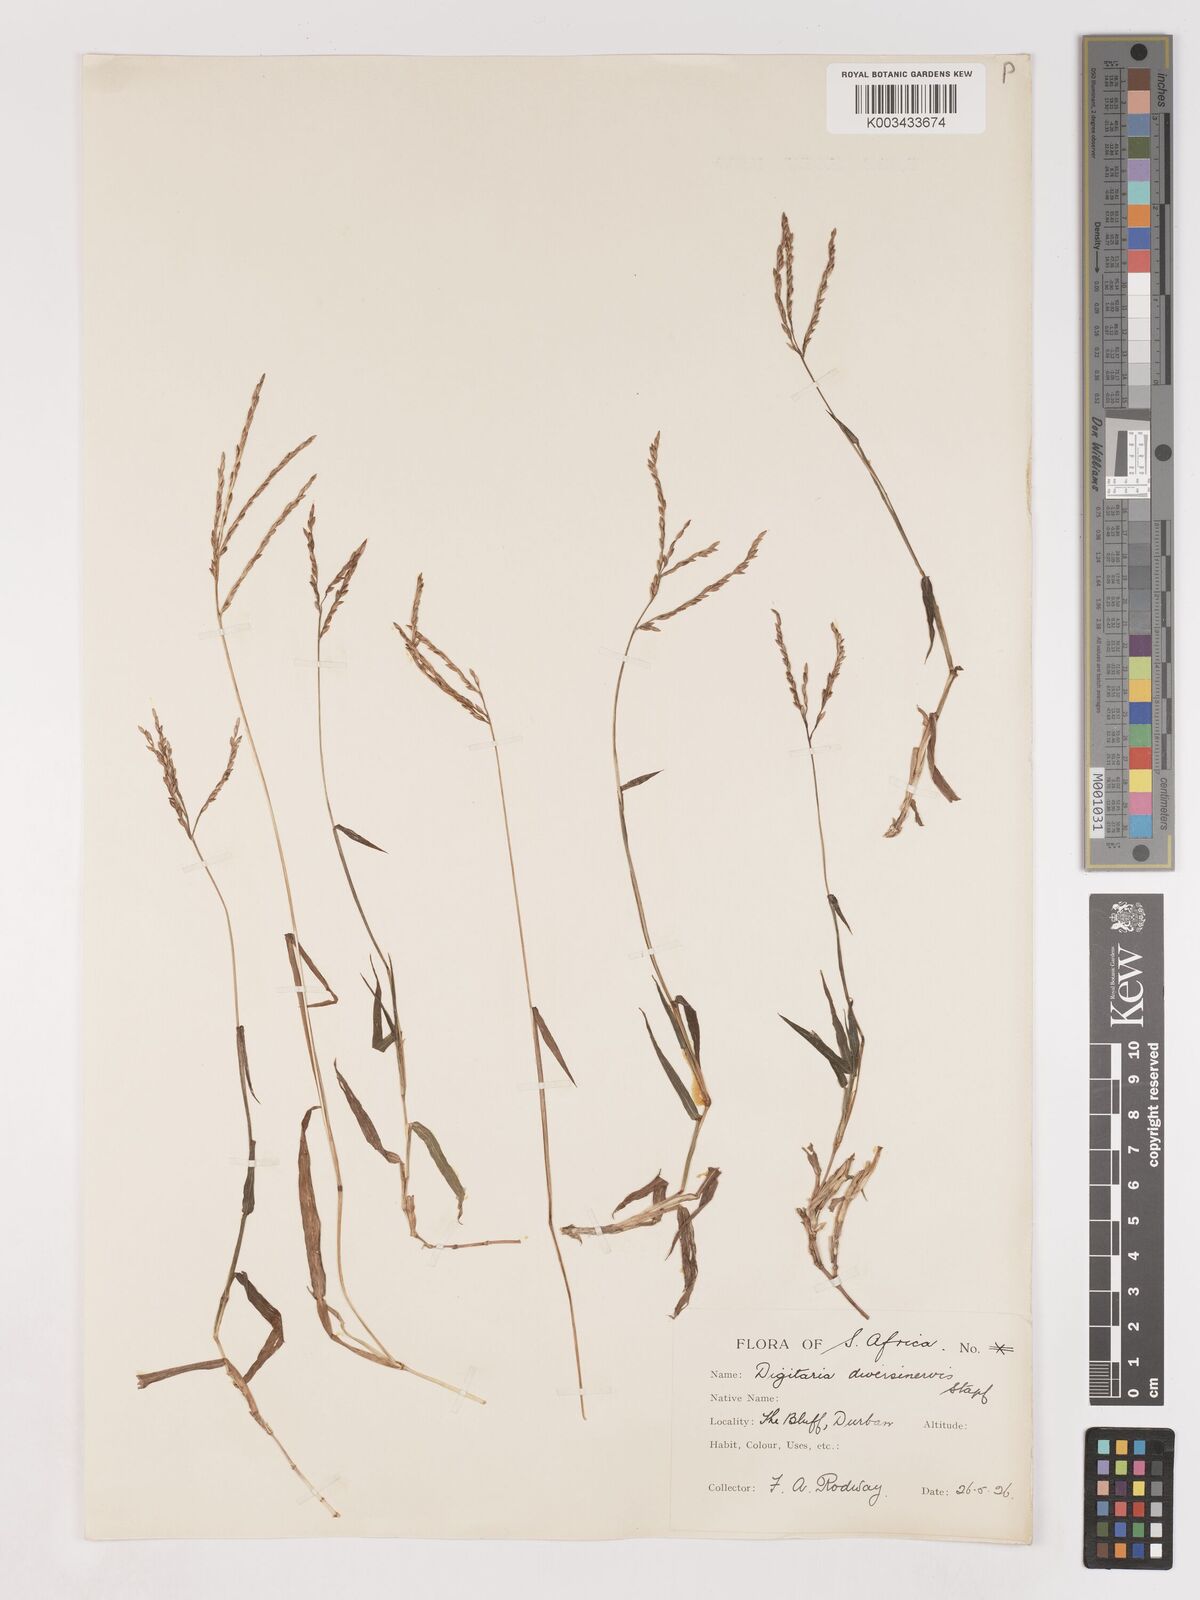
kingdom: Plantae
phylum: Tracheophyta
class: Liliopsida
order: Poales
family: Poaceae
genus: Digitaria
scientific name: Digitaria diversinervis
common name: Richmond finger grass
